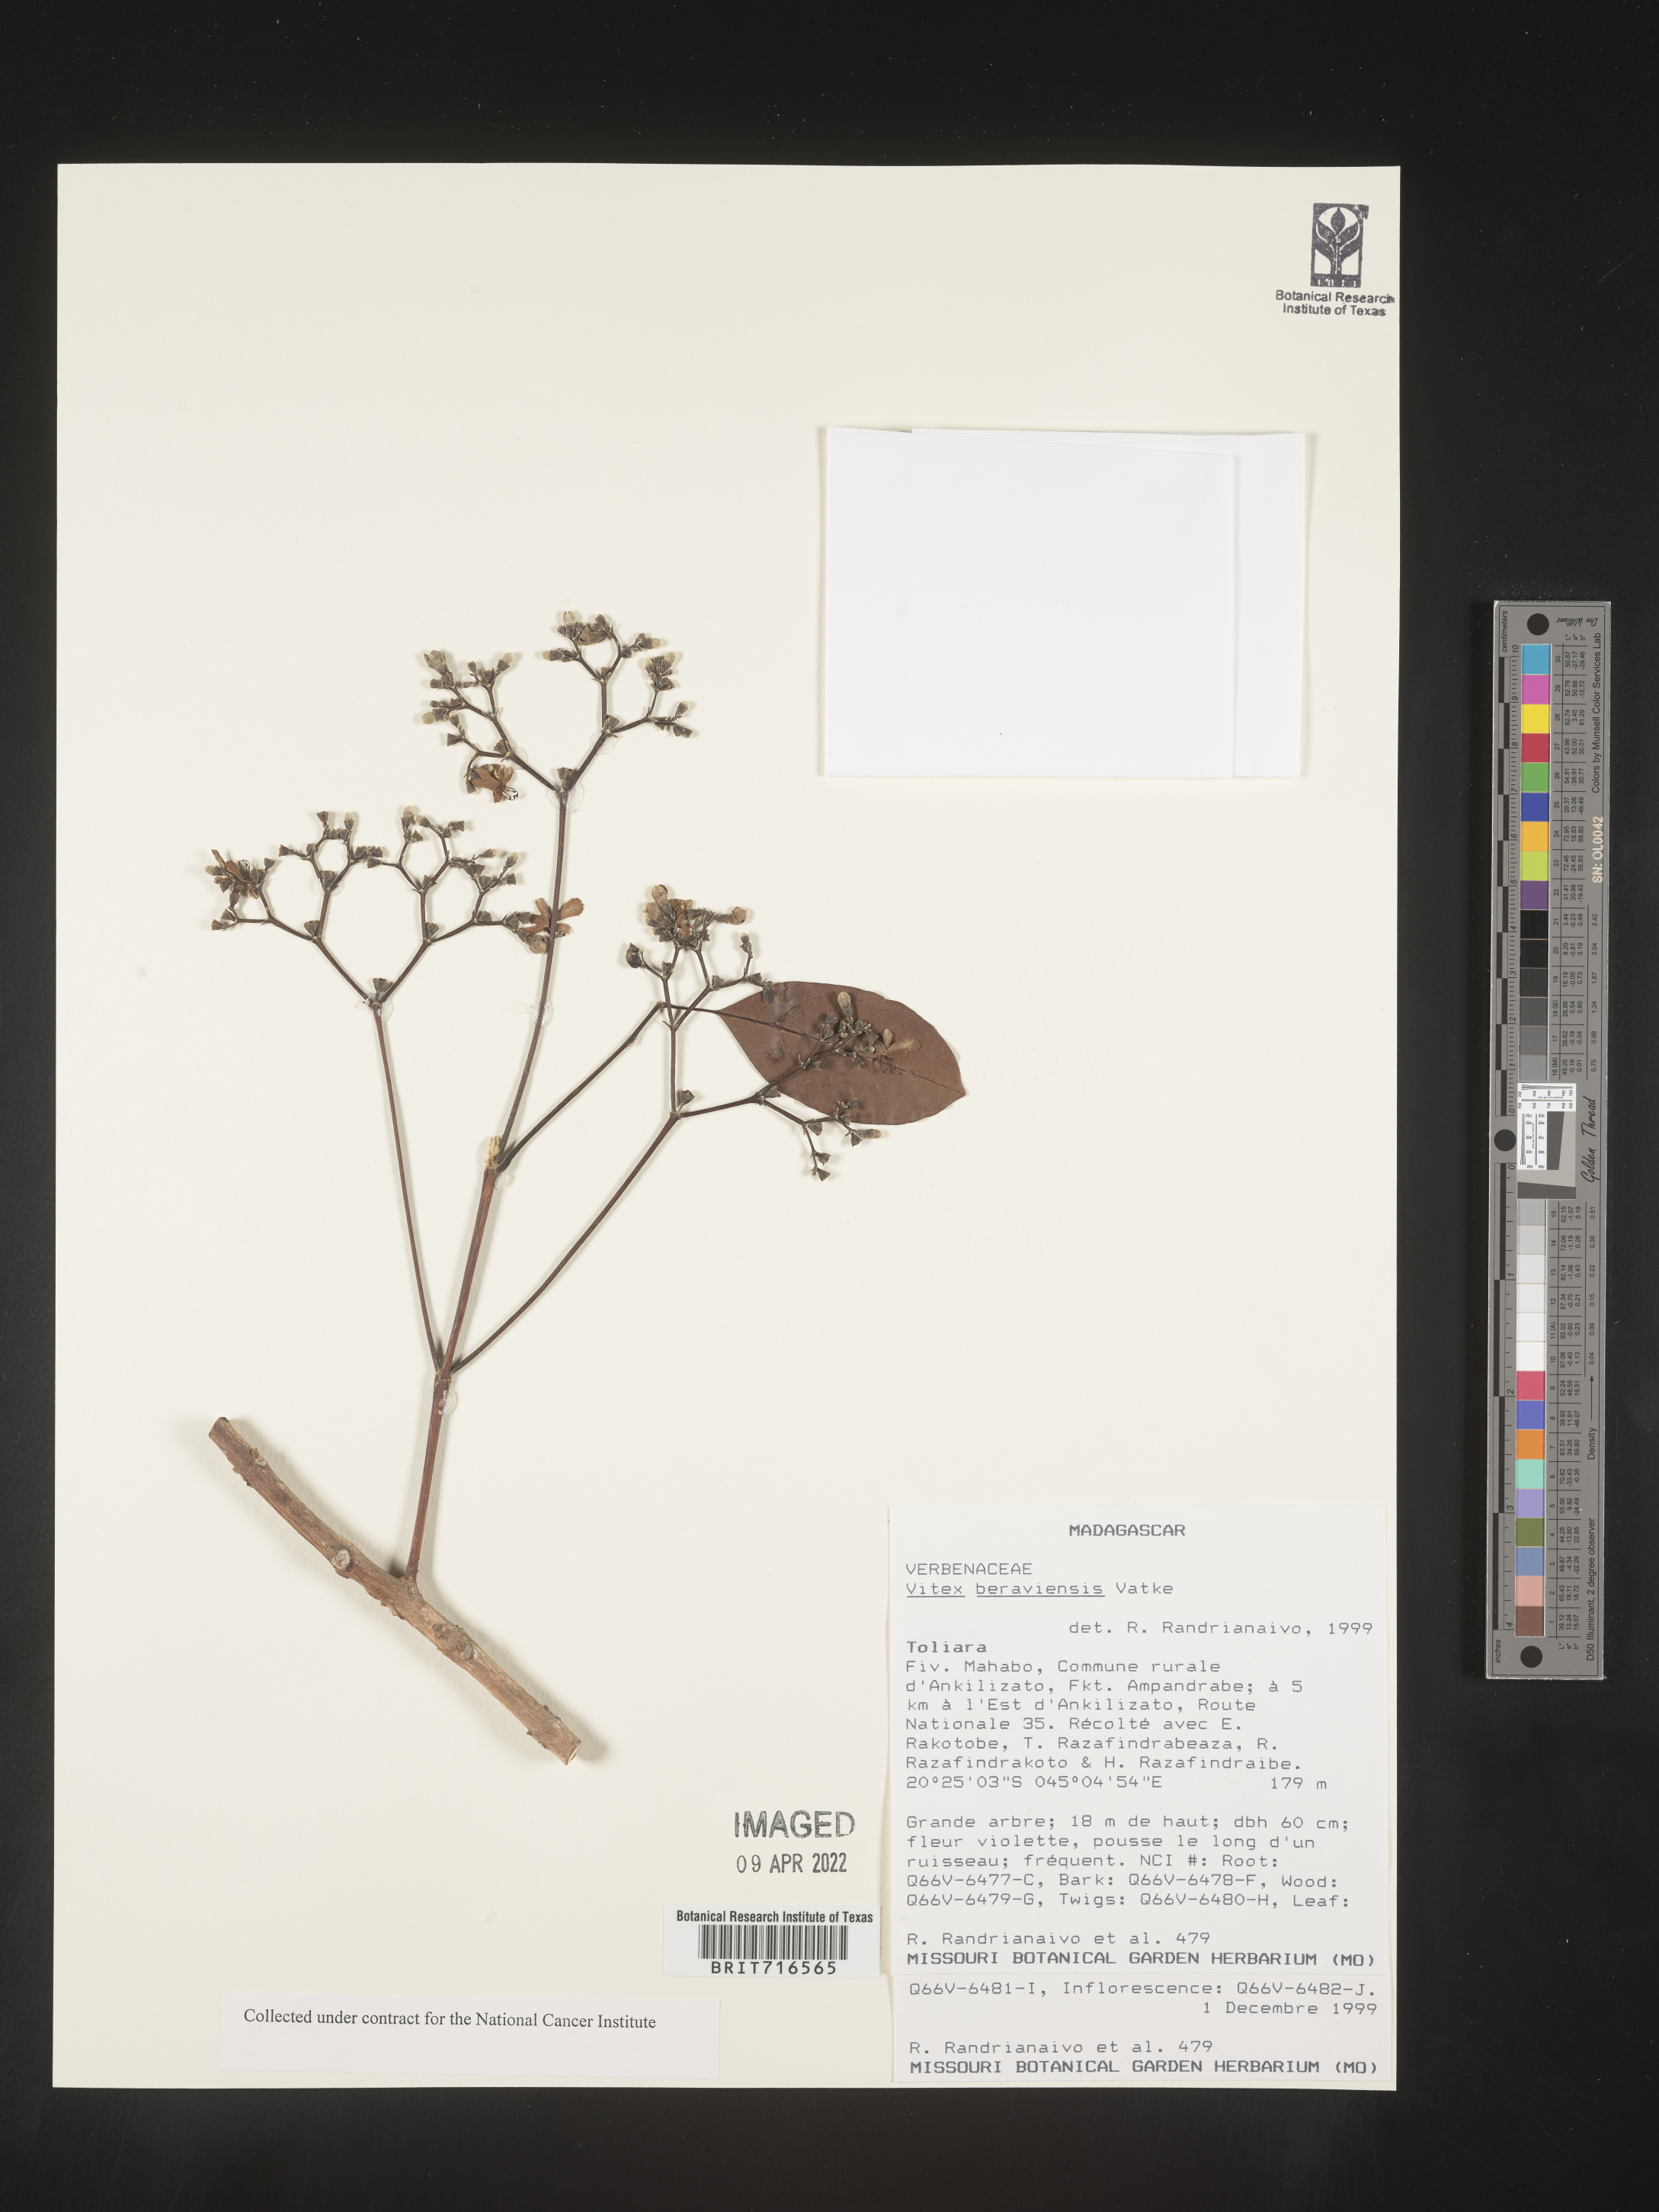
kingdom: Plantae
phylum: Tracheophyta
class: Magnoliopsida
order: Lamiales
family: Lamiaceae
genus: Vitex
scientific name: Vitex
